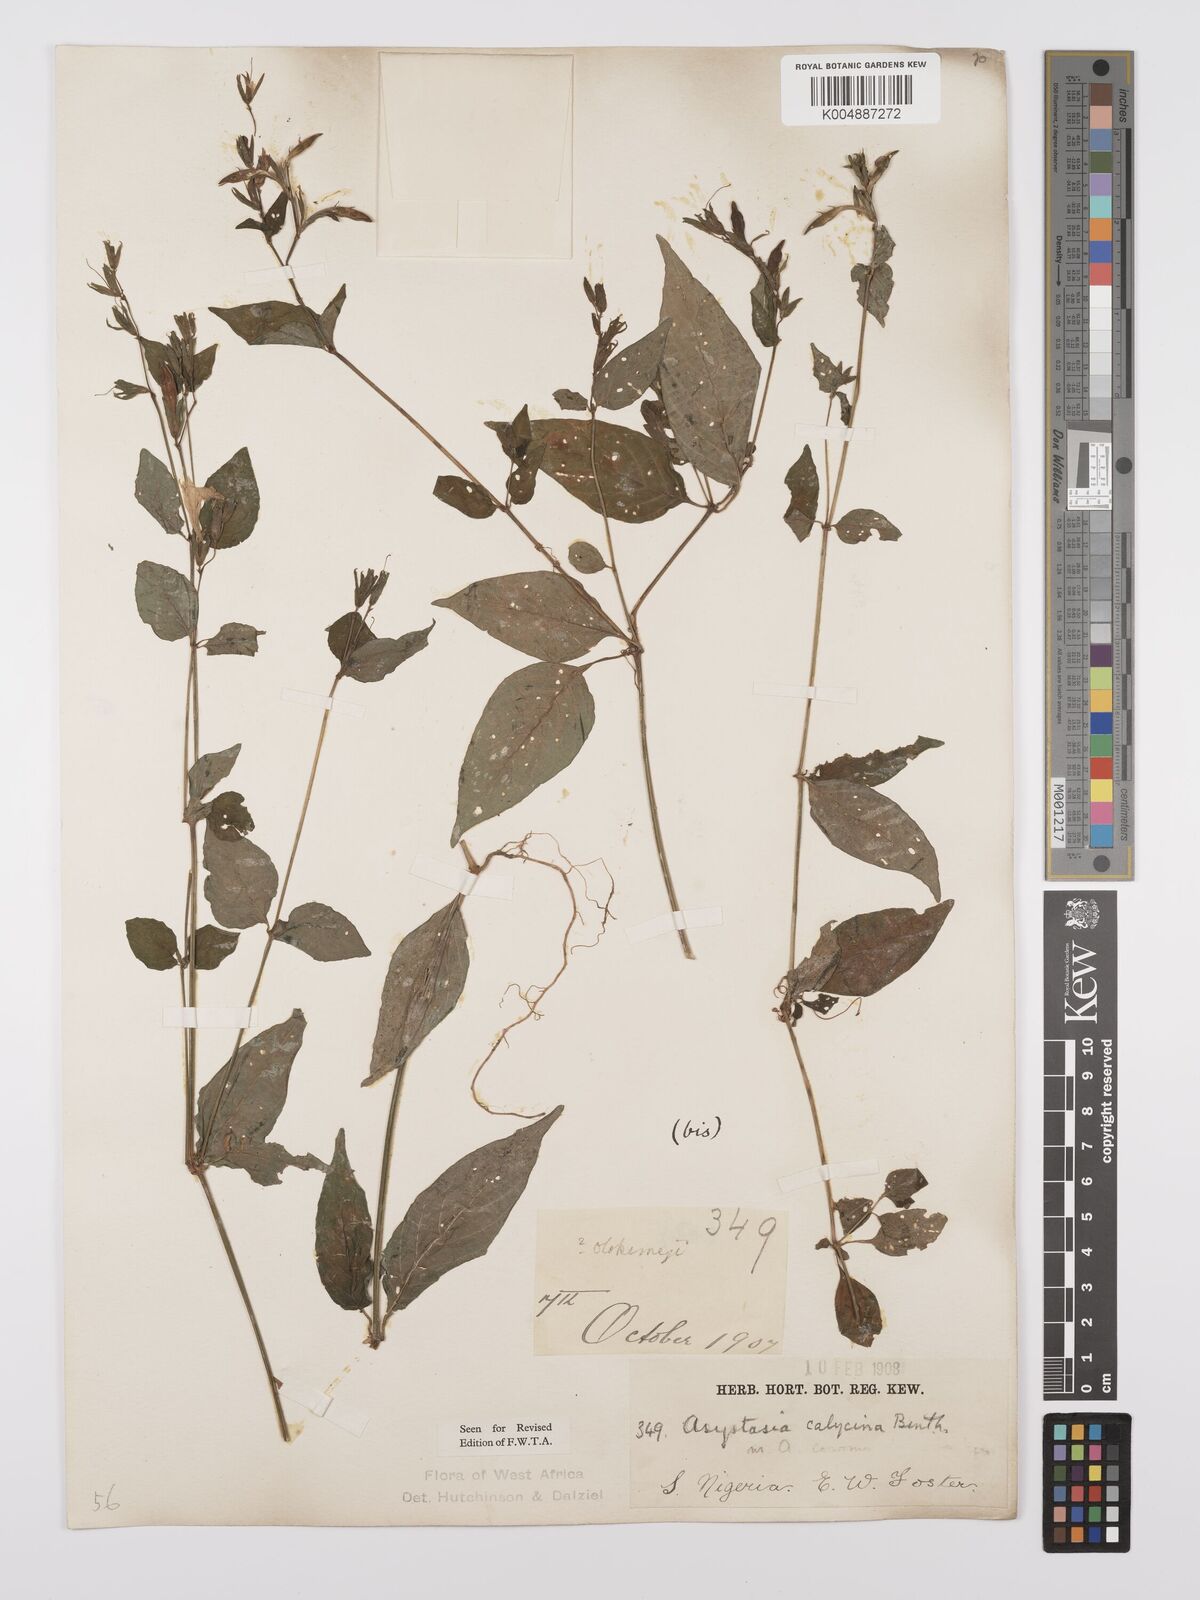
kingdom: Plantae
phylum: Tracheophyta
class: Magnoliopsida
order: Lamiales
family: Acanthaceae
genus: Asystasia
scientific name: Asystasia buettneri
